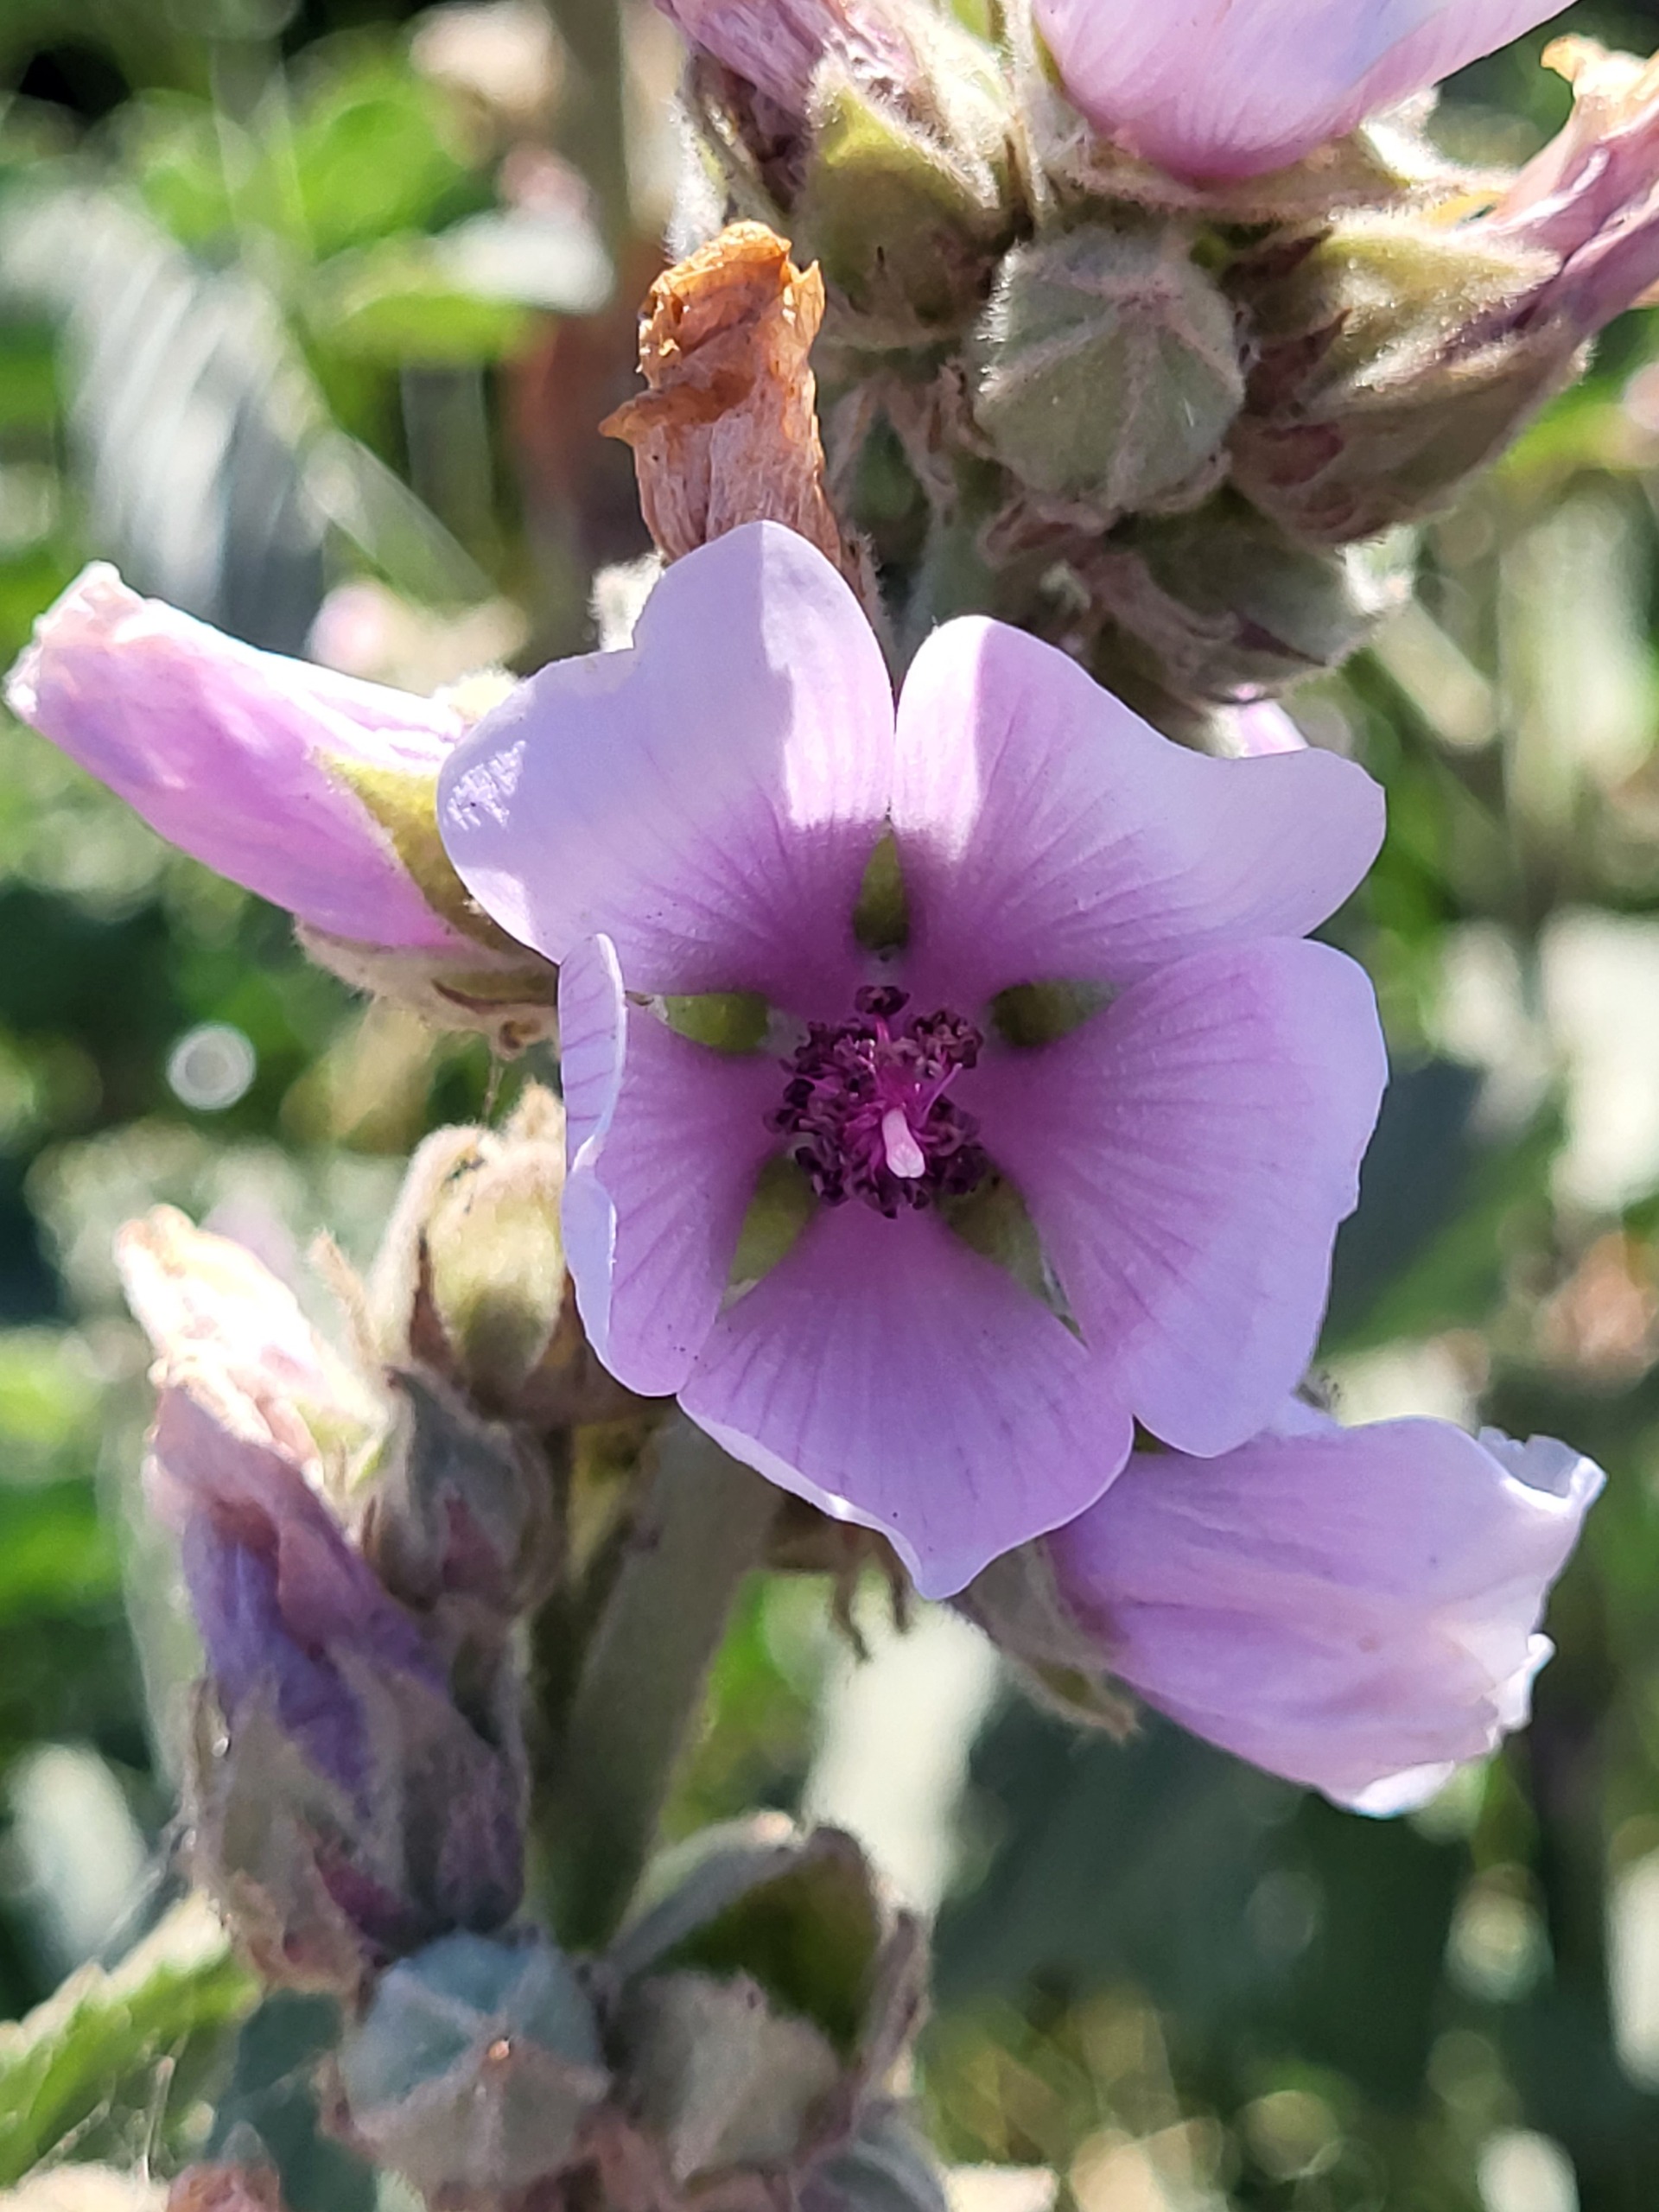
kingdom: Plantae
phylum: Tracheophyta
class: Magnoliopsida
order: Malvales
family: Malvaceae
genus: Althaea
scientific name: Althaea officinalis
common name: Lægestokrose
